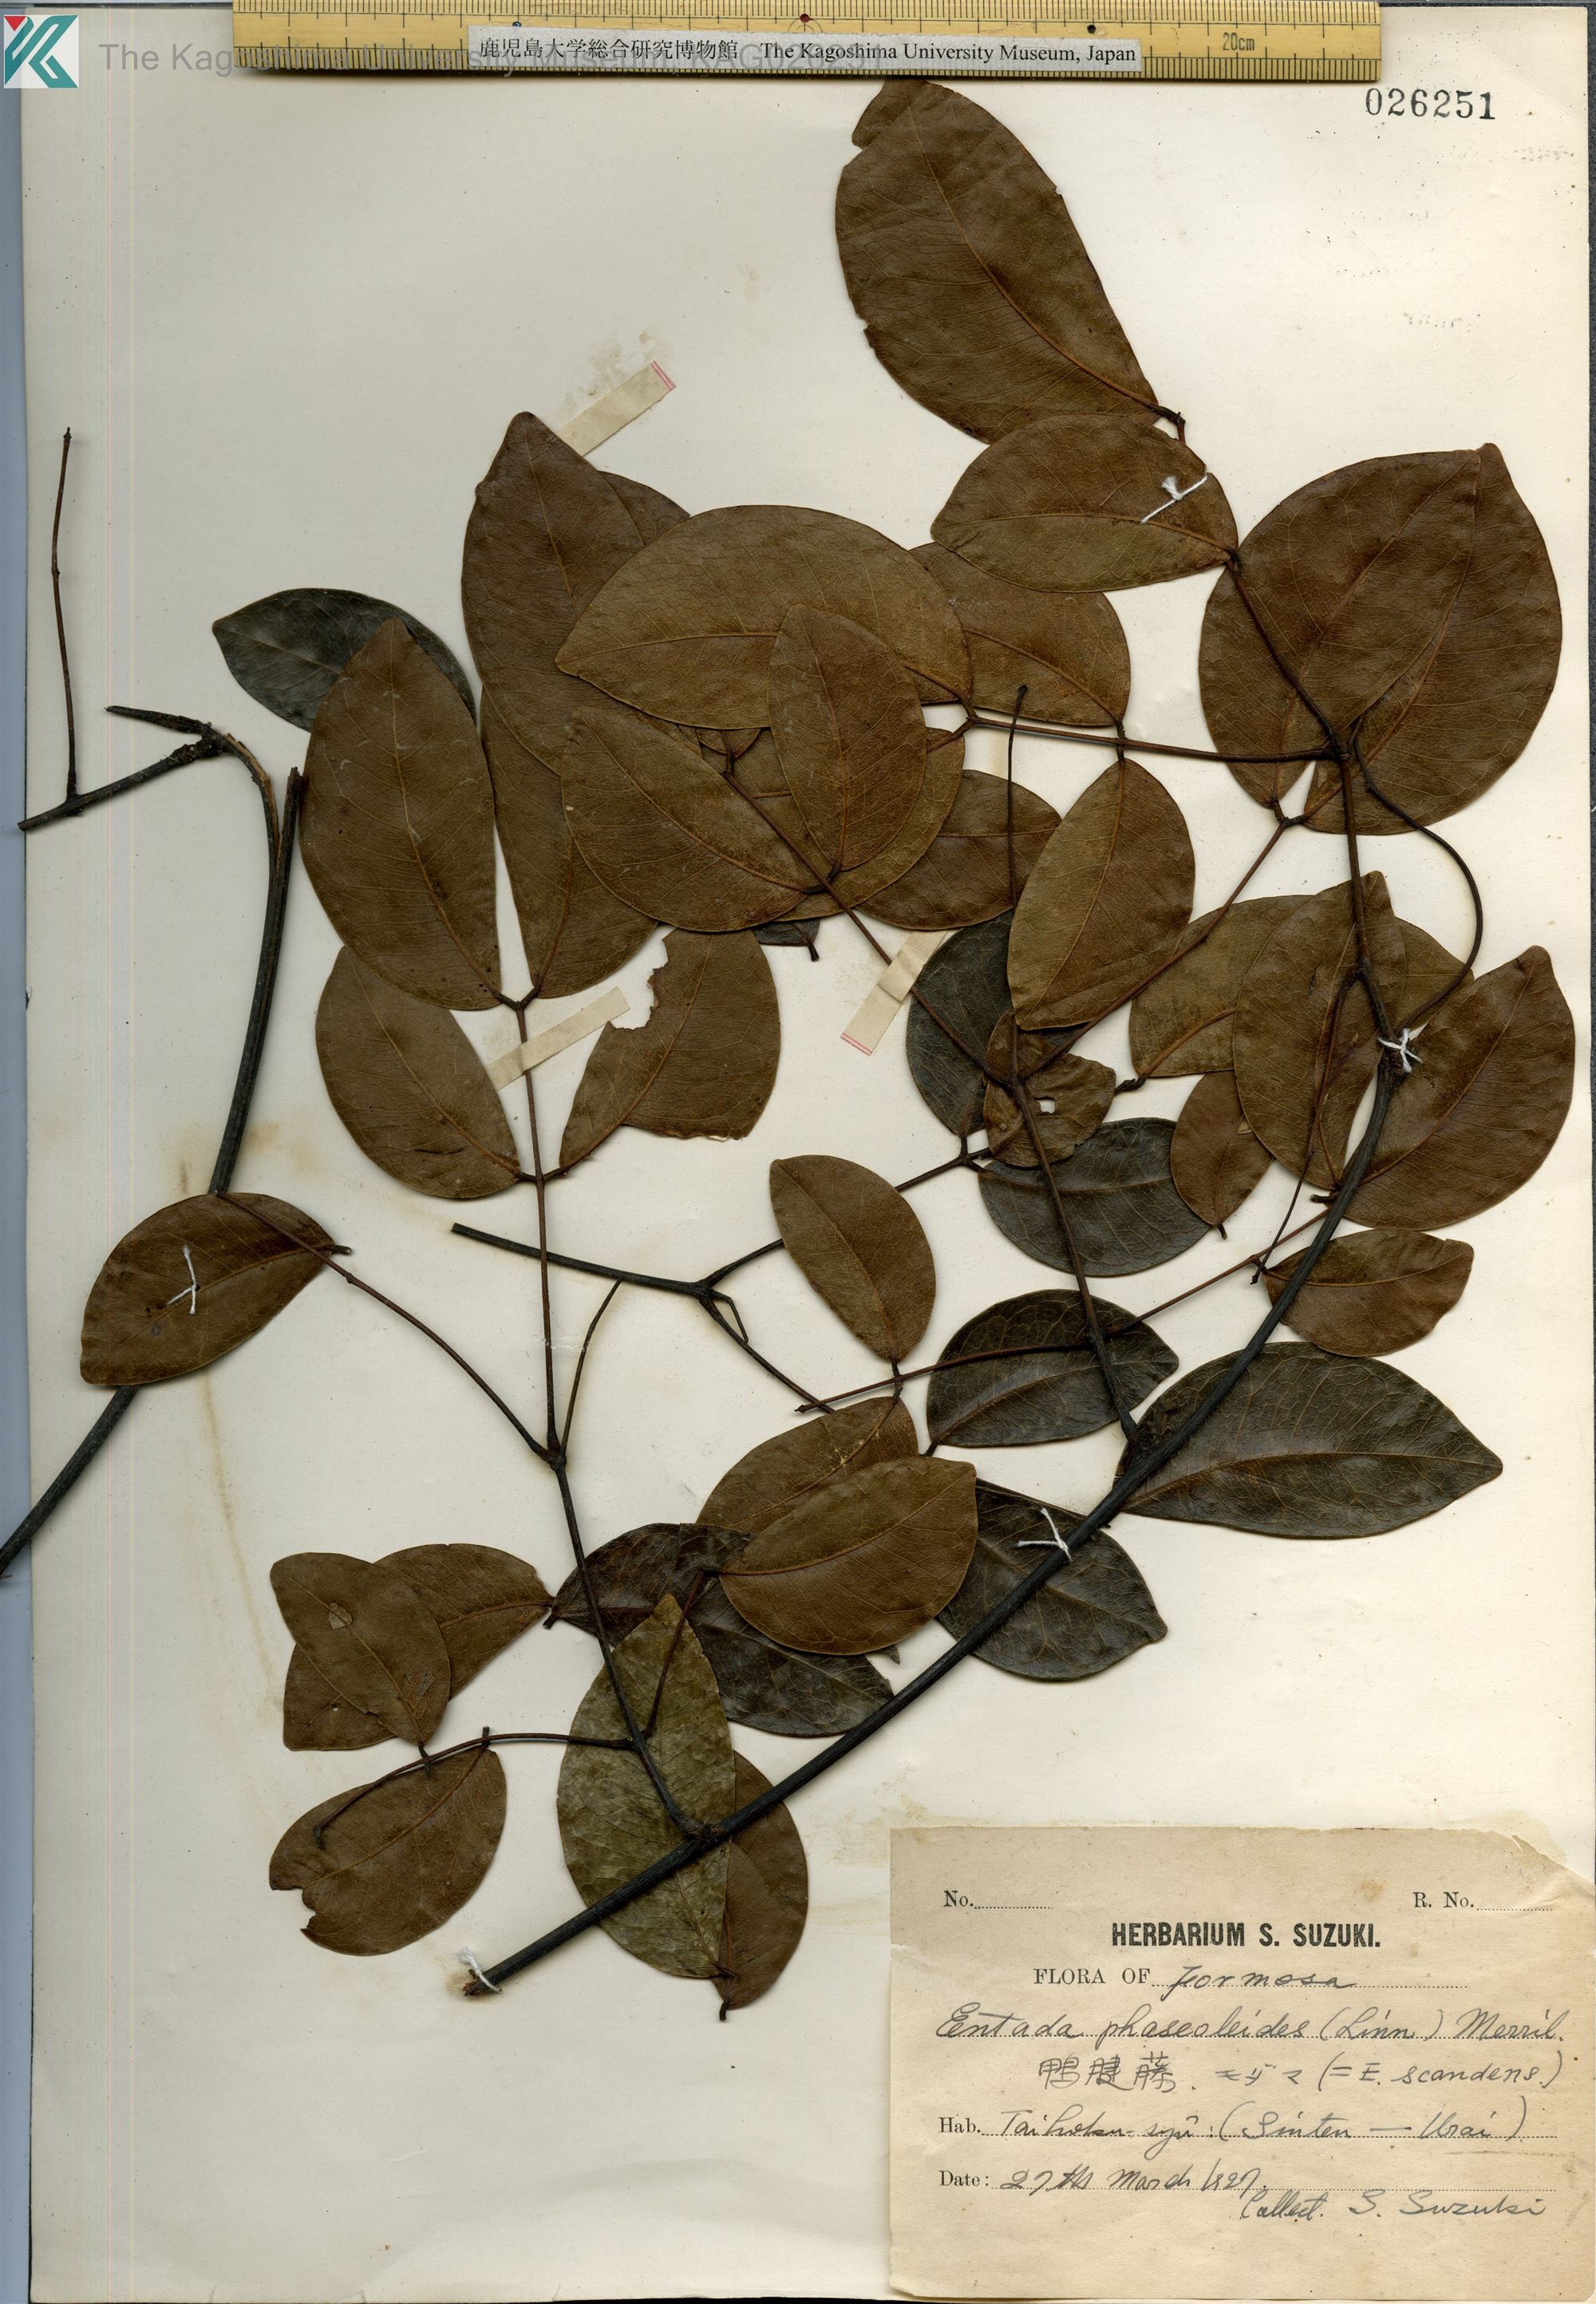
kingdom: Plantae
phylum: Tracheophyta
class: Magnoliopsida
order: Fabales
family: Fabaceae
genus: Entada
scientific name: Entada tonkinensis
